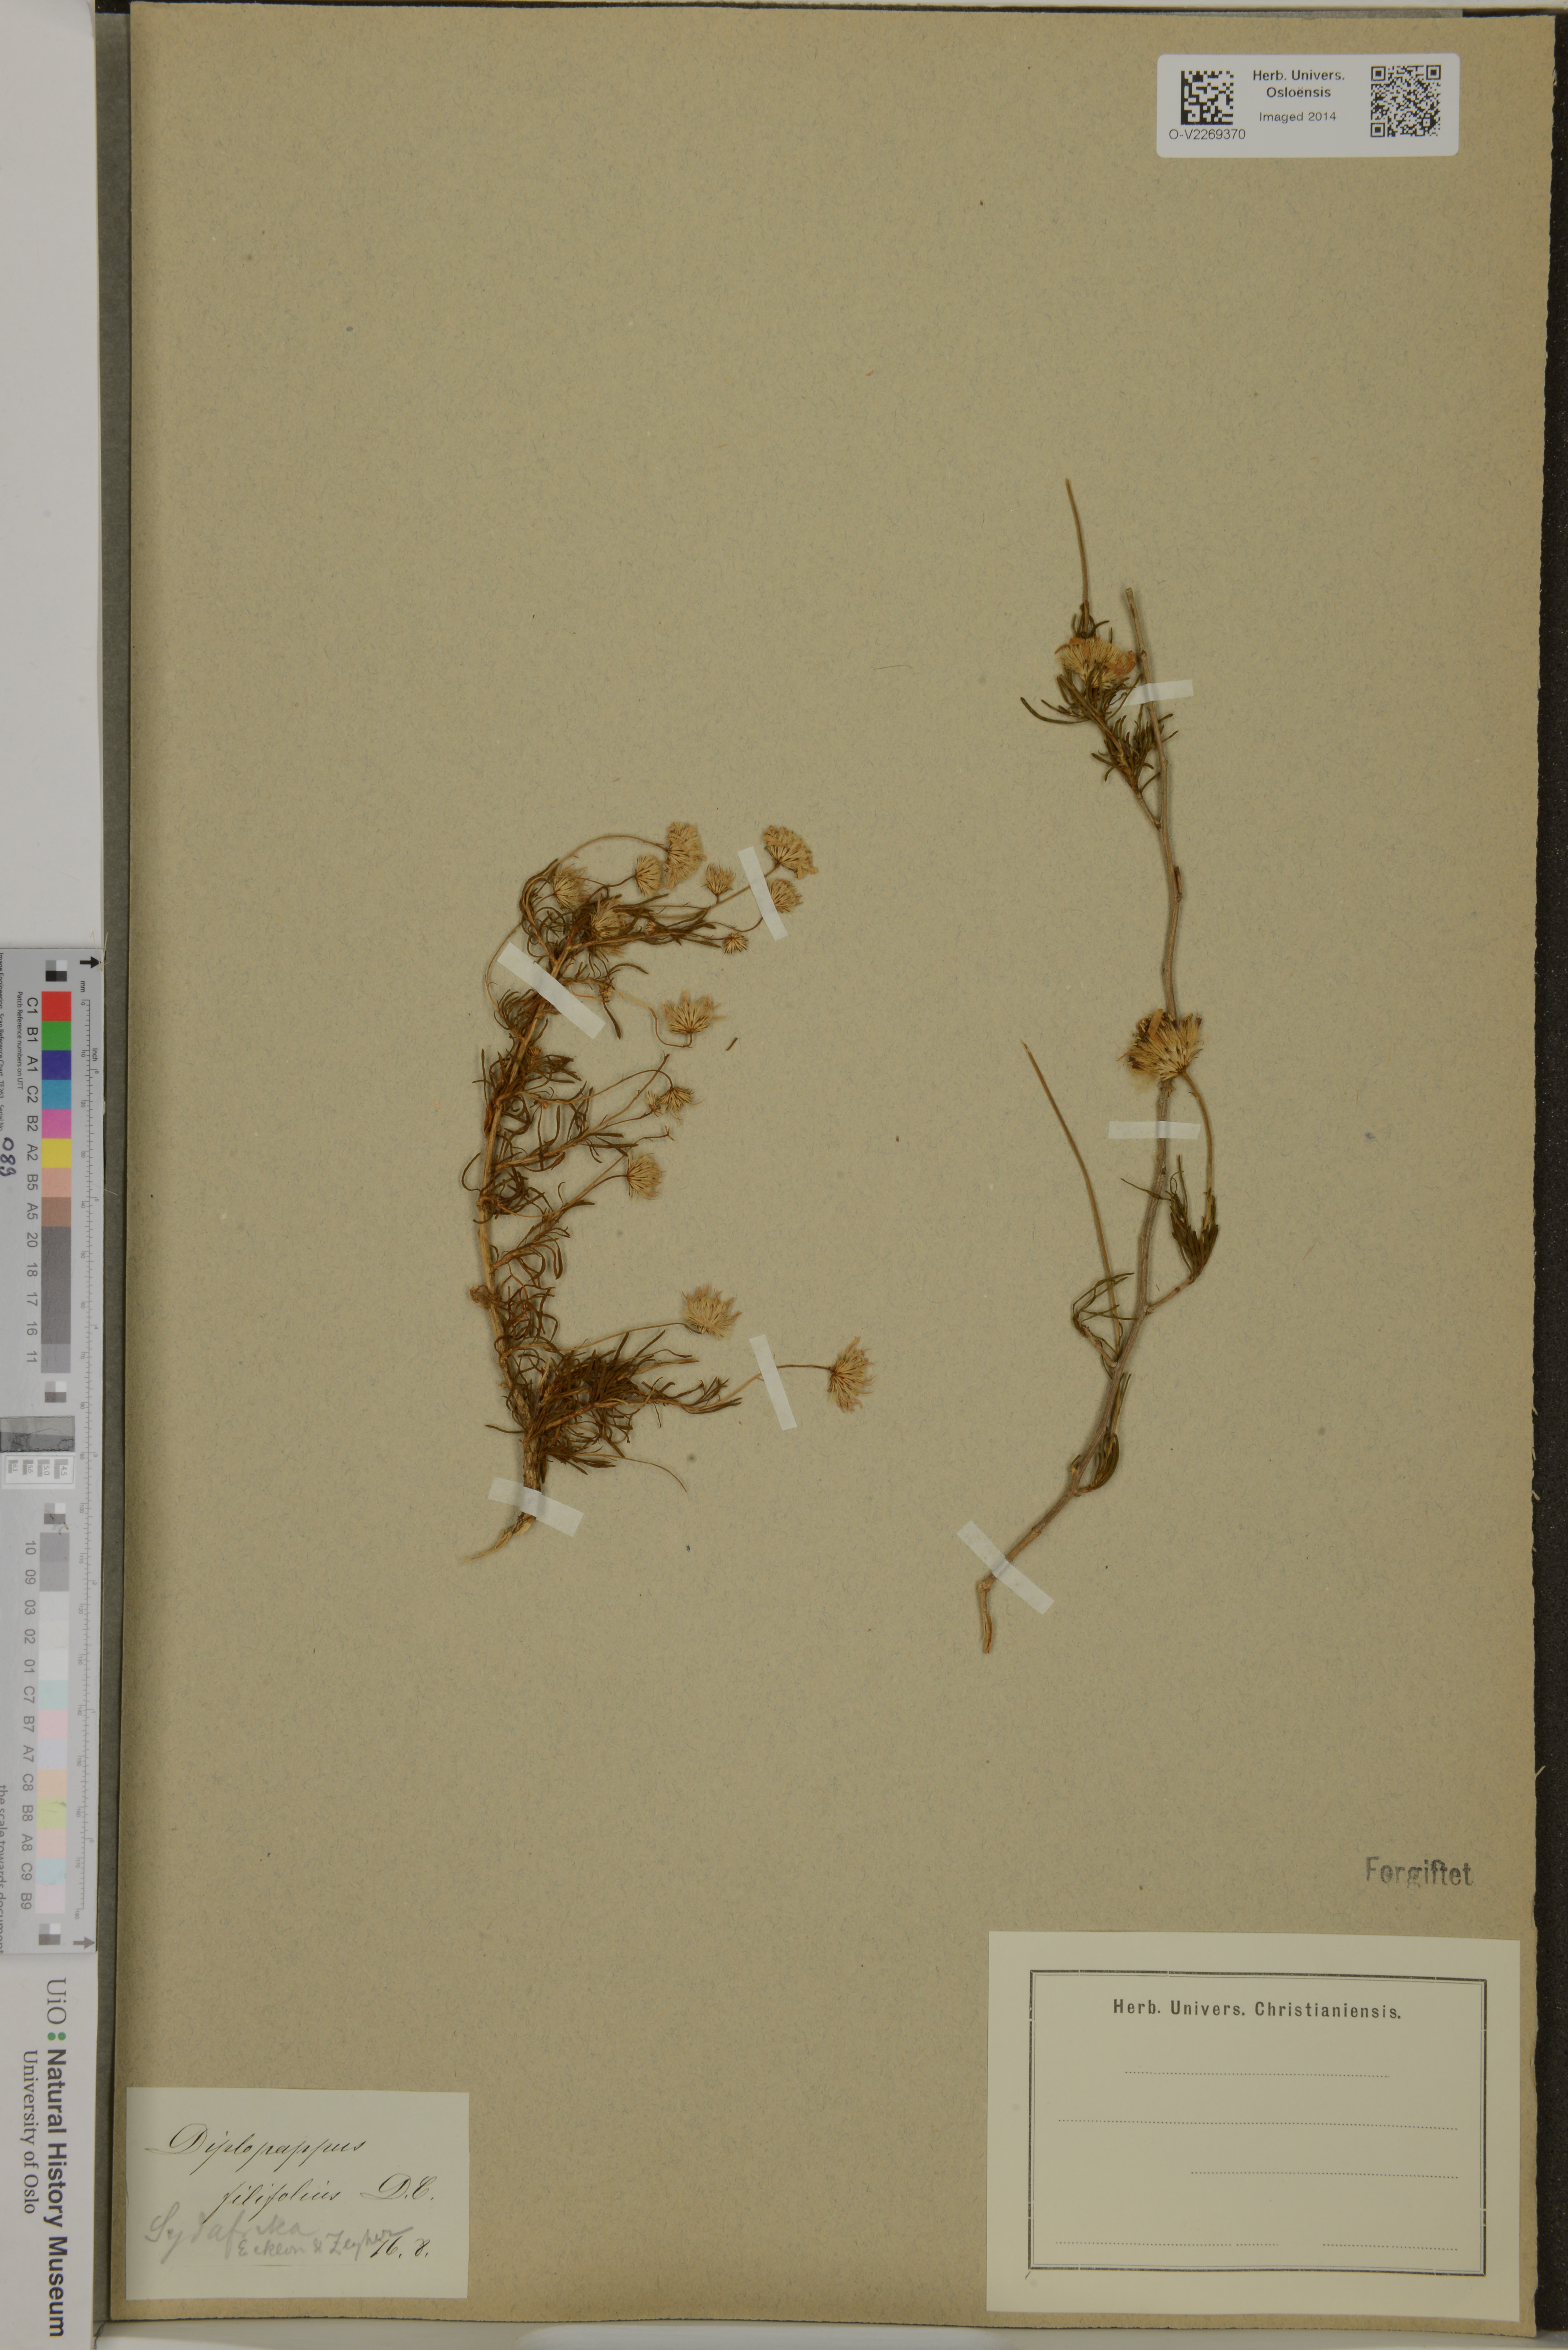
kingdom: Plantae
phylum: Tracheophyta
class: Magnoliopsida
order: Asterales
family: Asteraceae
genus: Chrysopsis
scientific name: Chrysopsis Diplopappus filifolius
